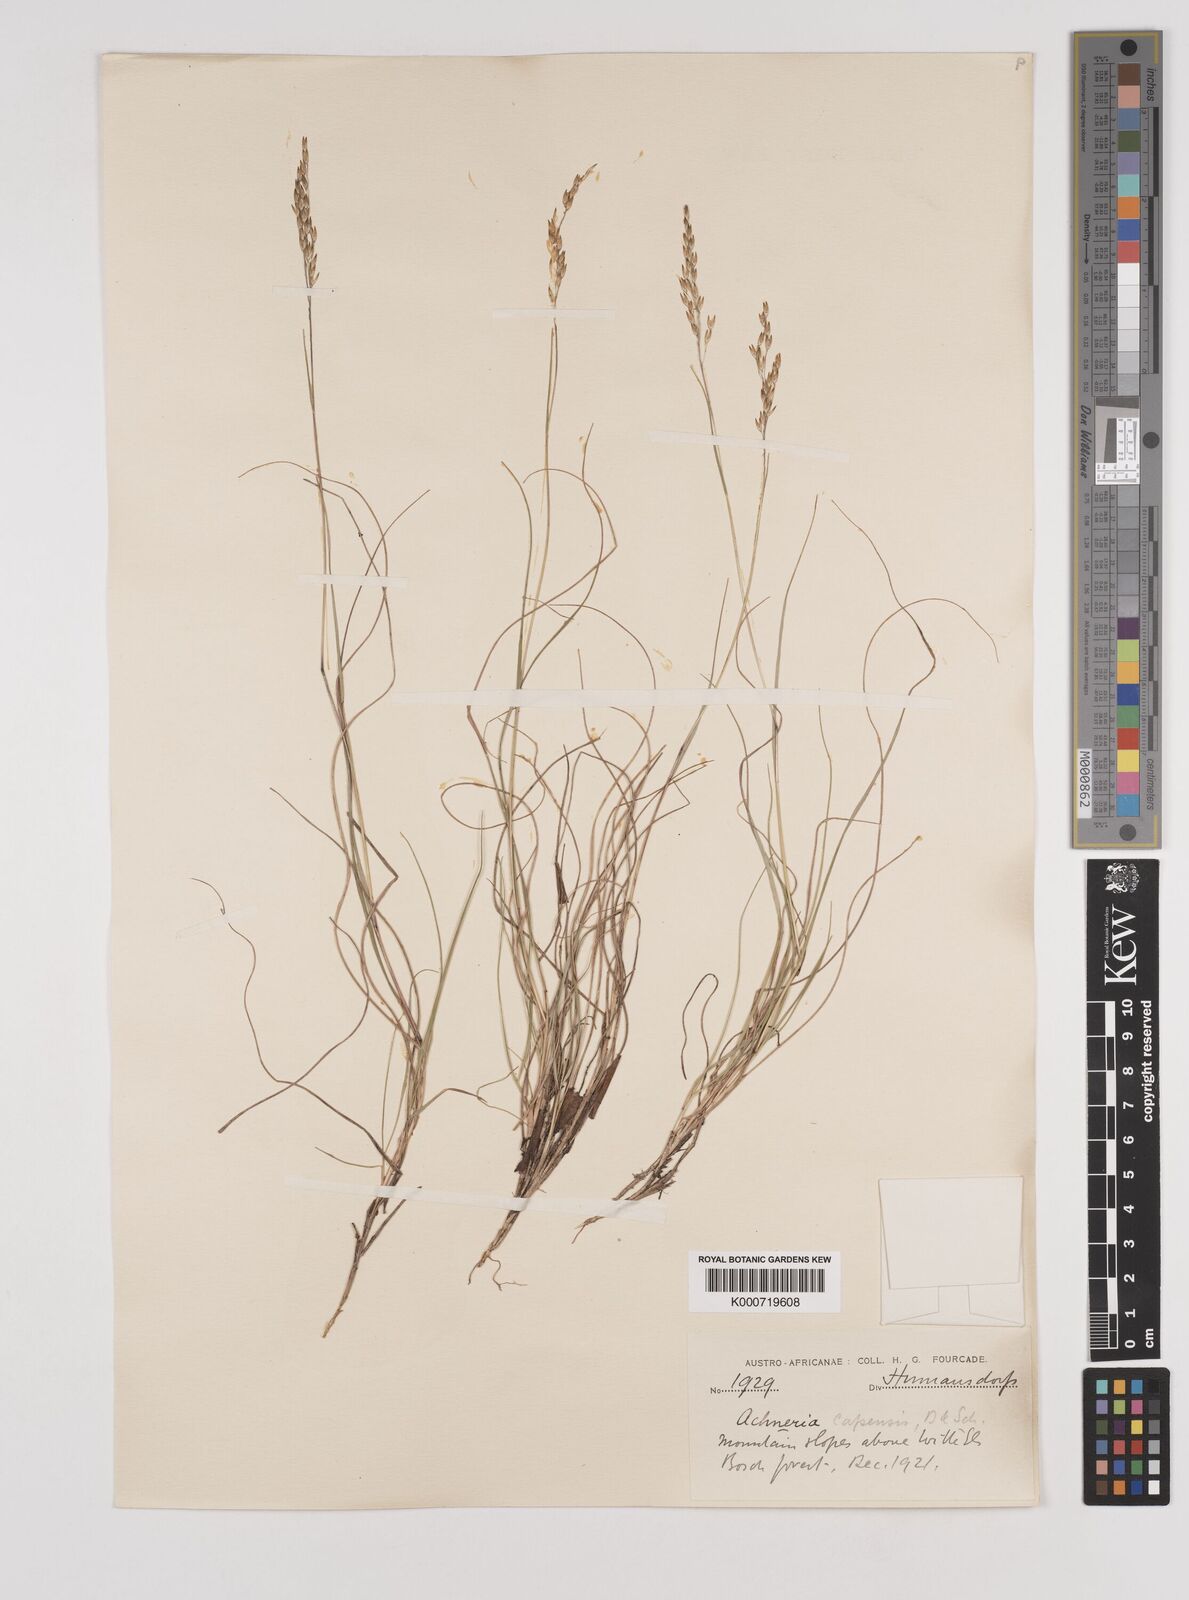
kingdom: Plantae
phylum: Tracheophyta
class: Liliopsida
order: Poales
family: Poaceae
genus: Pentameris
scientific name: Pentameris malouinensis
